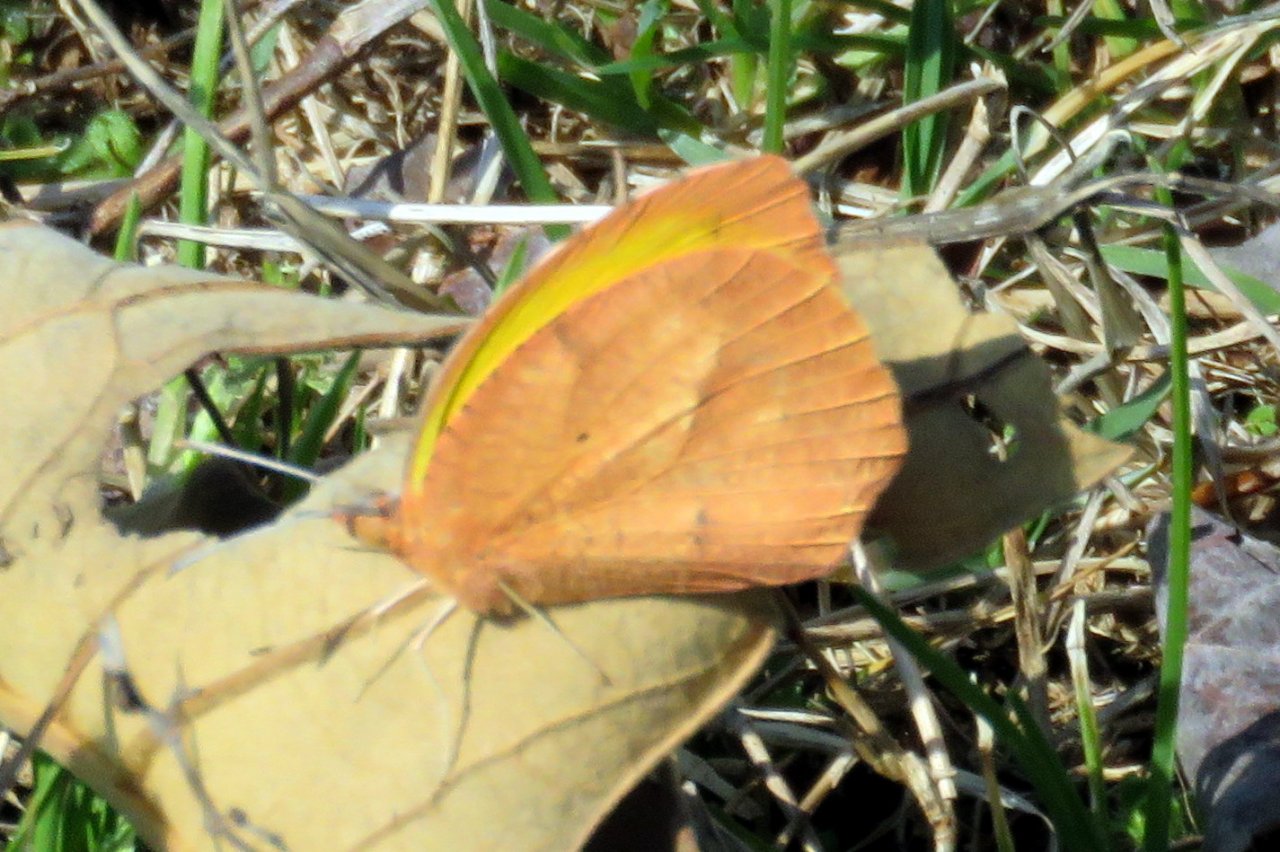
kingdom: Animalia
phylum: Arthropoda
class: Insecta
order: Lepidoptera
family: Pieridae
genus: Abaeis
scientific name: Abaeis nicippe
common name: Sleepy Orange
